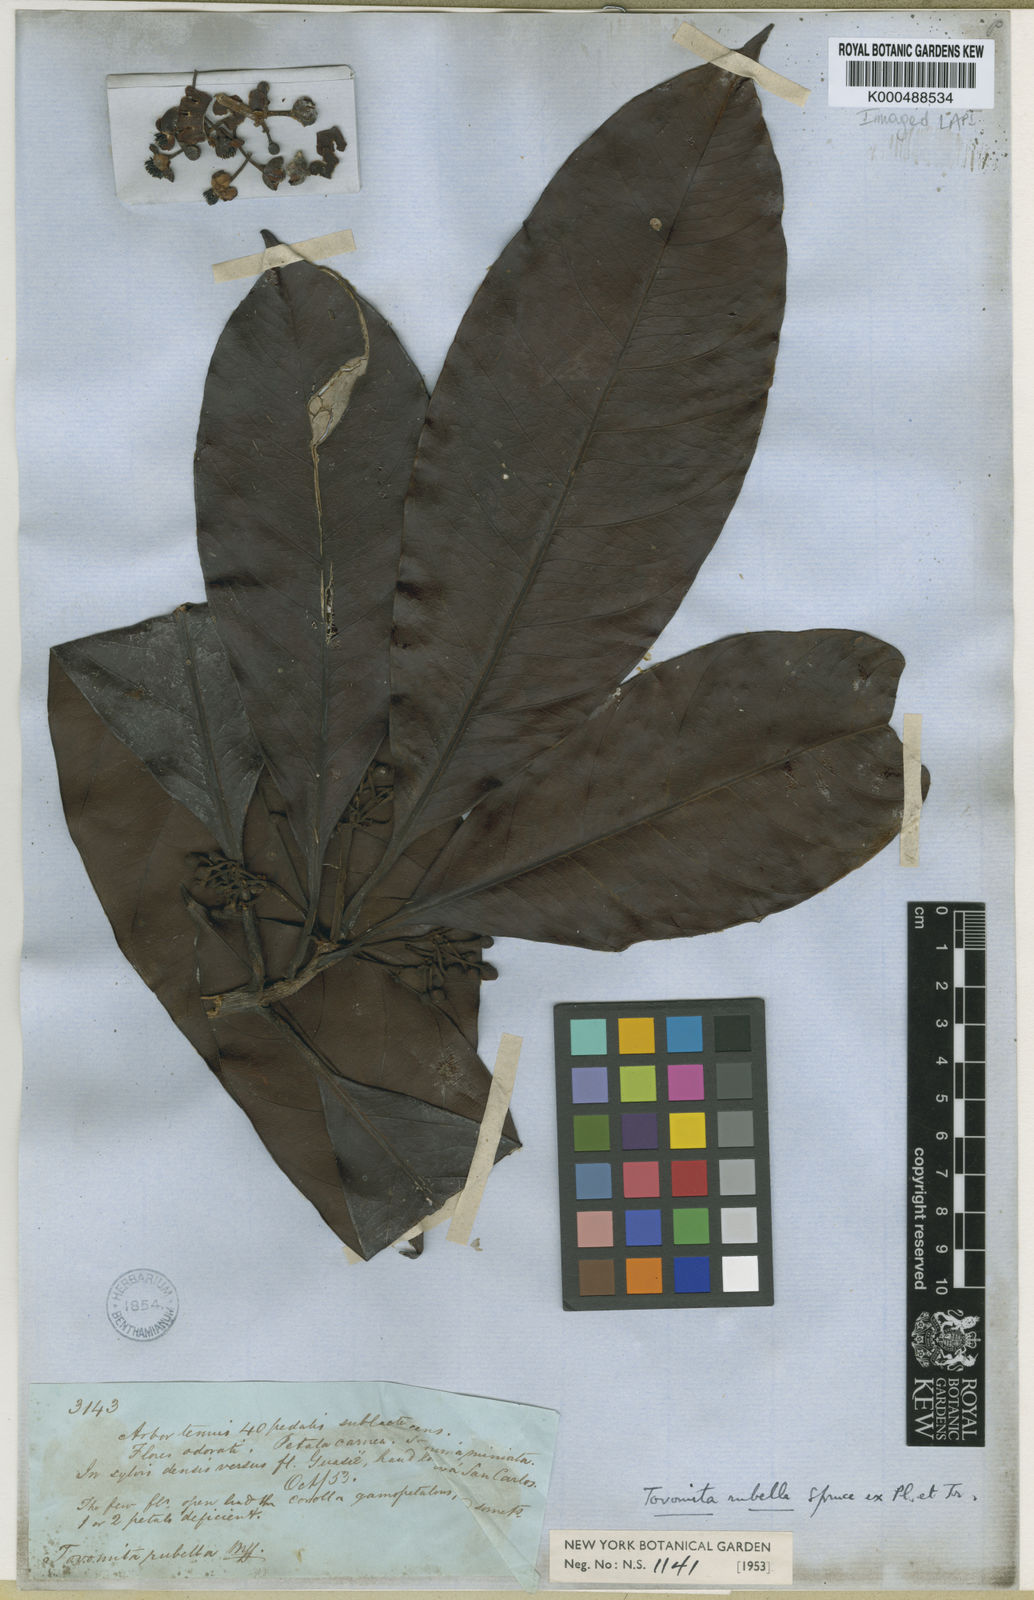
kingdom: Plantae
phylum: Tracheophyta
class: Magnoliopsida
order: Malpighiales
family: Clusiaceae
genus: Tovomita
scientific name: Tovomita rubella
